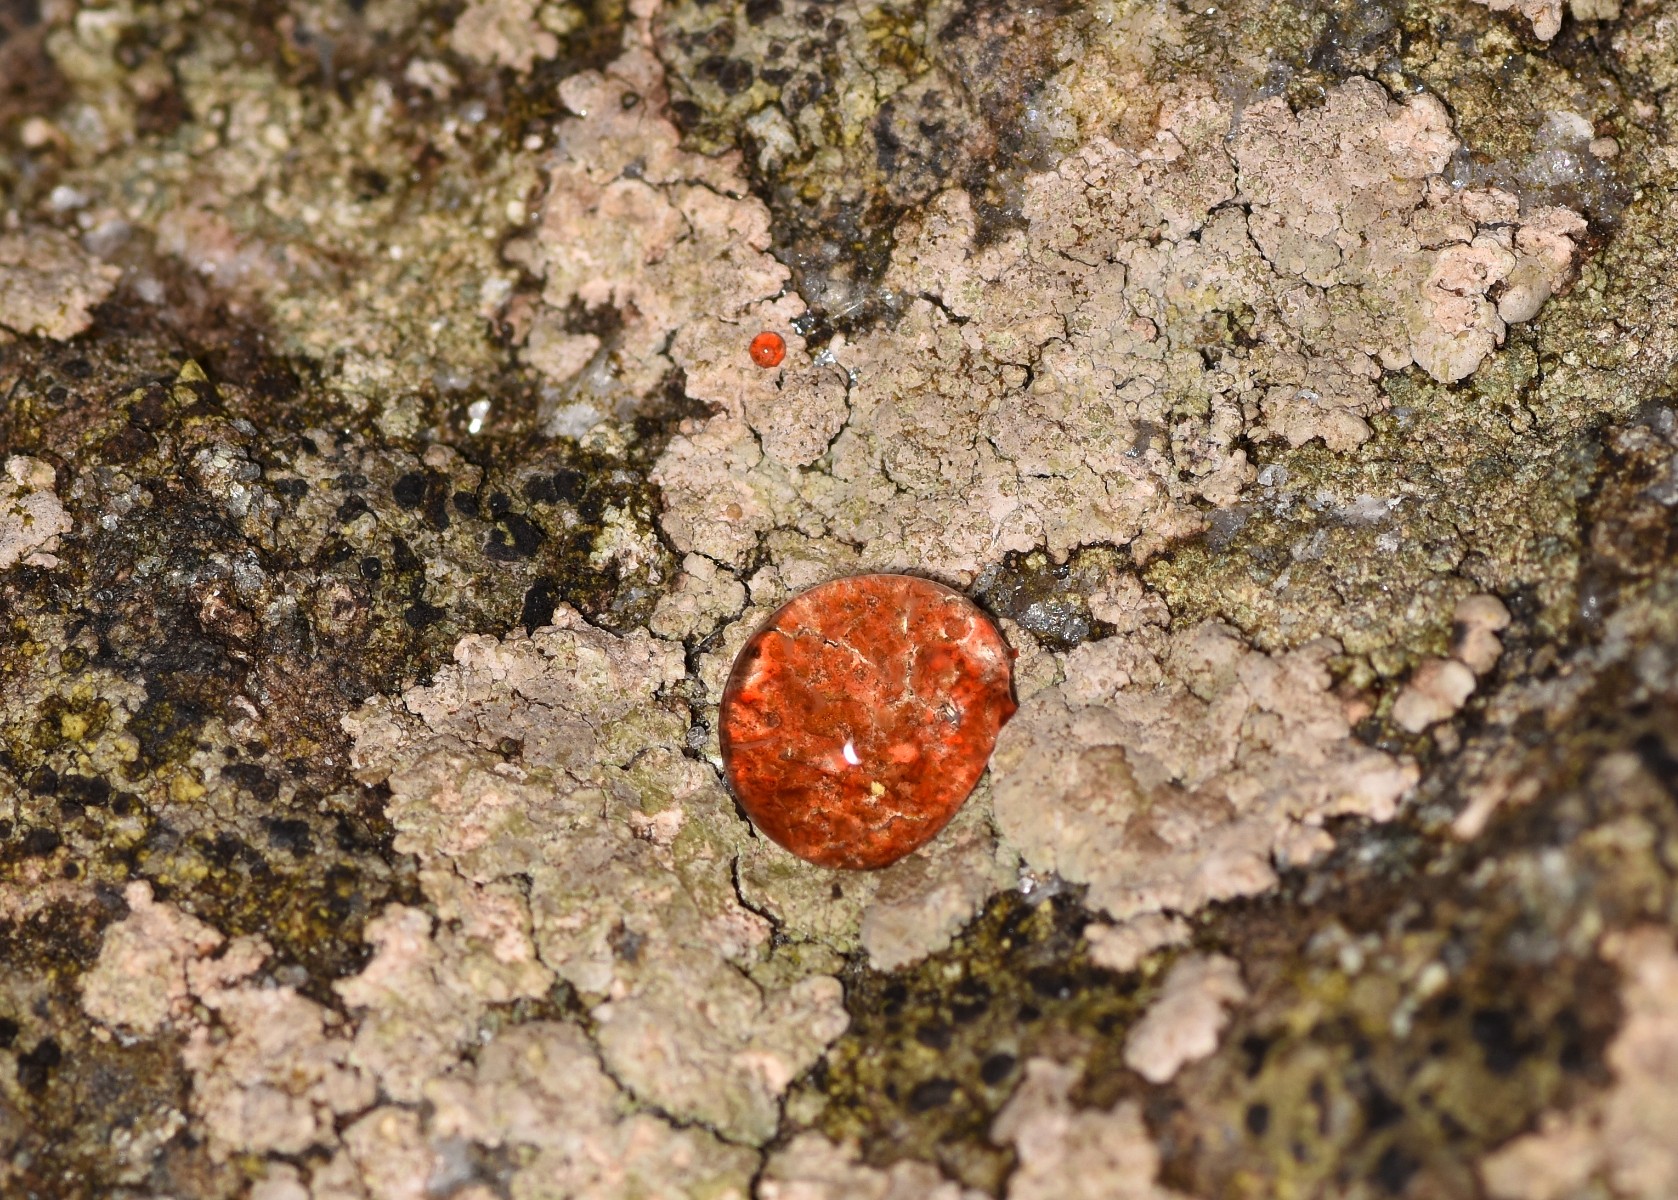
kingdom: Fungi
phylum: Ascomycota
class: Lecanoromycetes
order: Baeomycetales
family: Trapeliaceae
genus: Kleopowiella
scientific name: Kleopowiella placodioides
